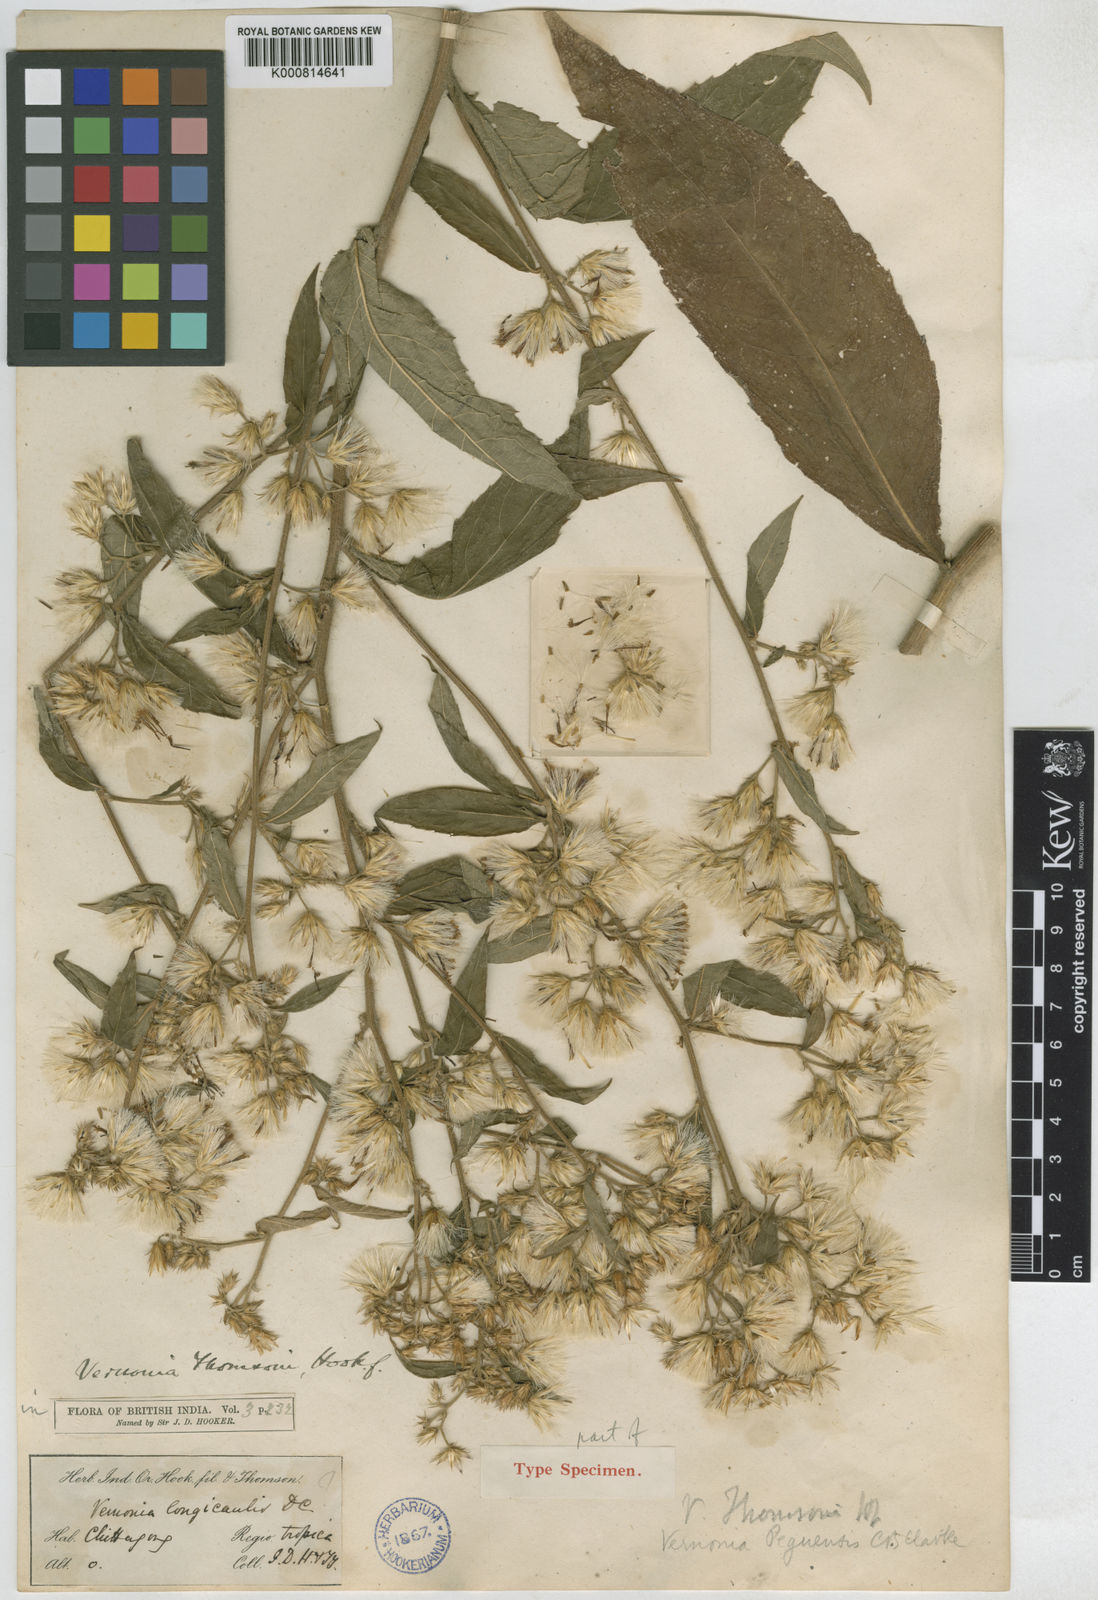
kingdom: Plantae
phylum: Tracheophyta
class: Magnoliopsida
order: Asterales
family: Asteraceae
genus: Vernonia
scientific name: Vernonia thomsonii
